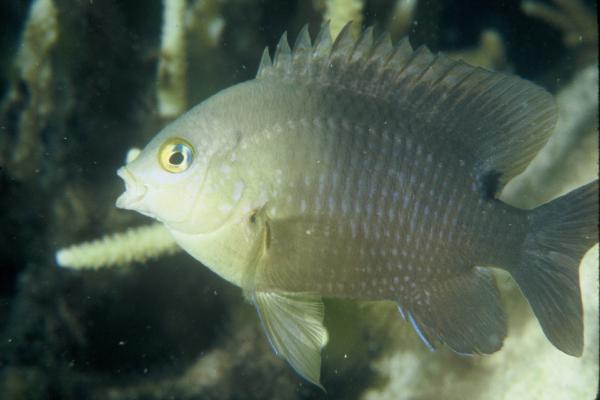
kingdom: Animalia
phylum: Chordata
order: Perciformes
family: Pomacentridae
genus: Stegastes
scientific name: Stegastes nigricans
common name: Dusky gregory
